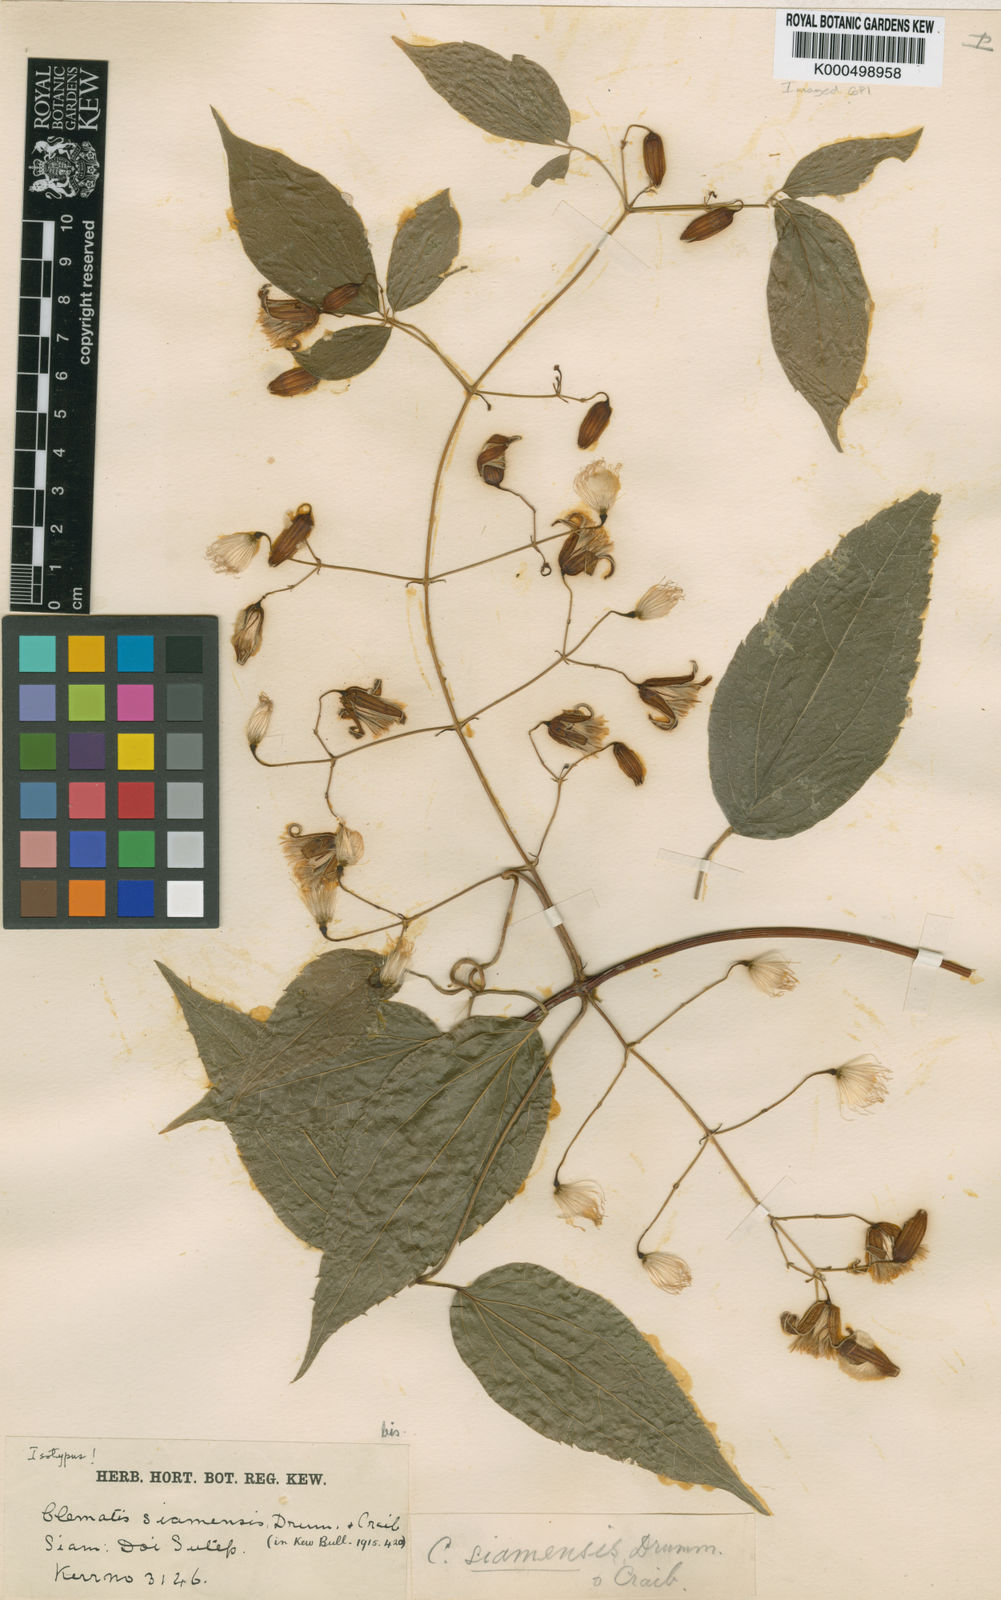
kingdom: Plantae
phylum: Tracheophyta
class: Magnoliopsida
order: Ranunculales
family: Ranunculaceae
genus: Clematis
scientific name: Clematis
